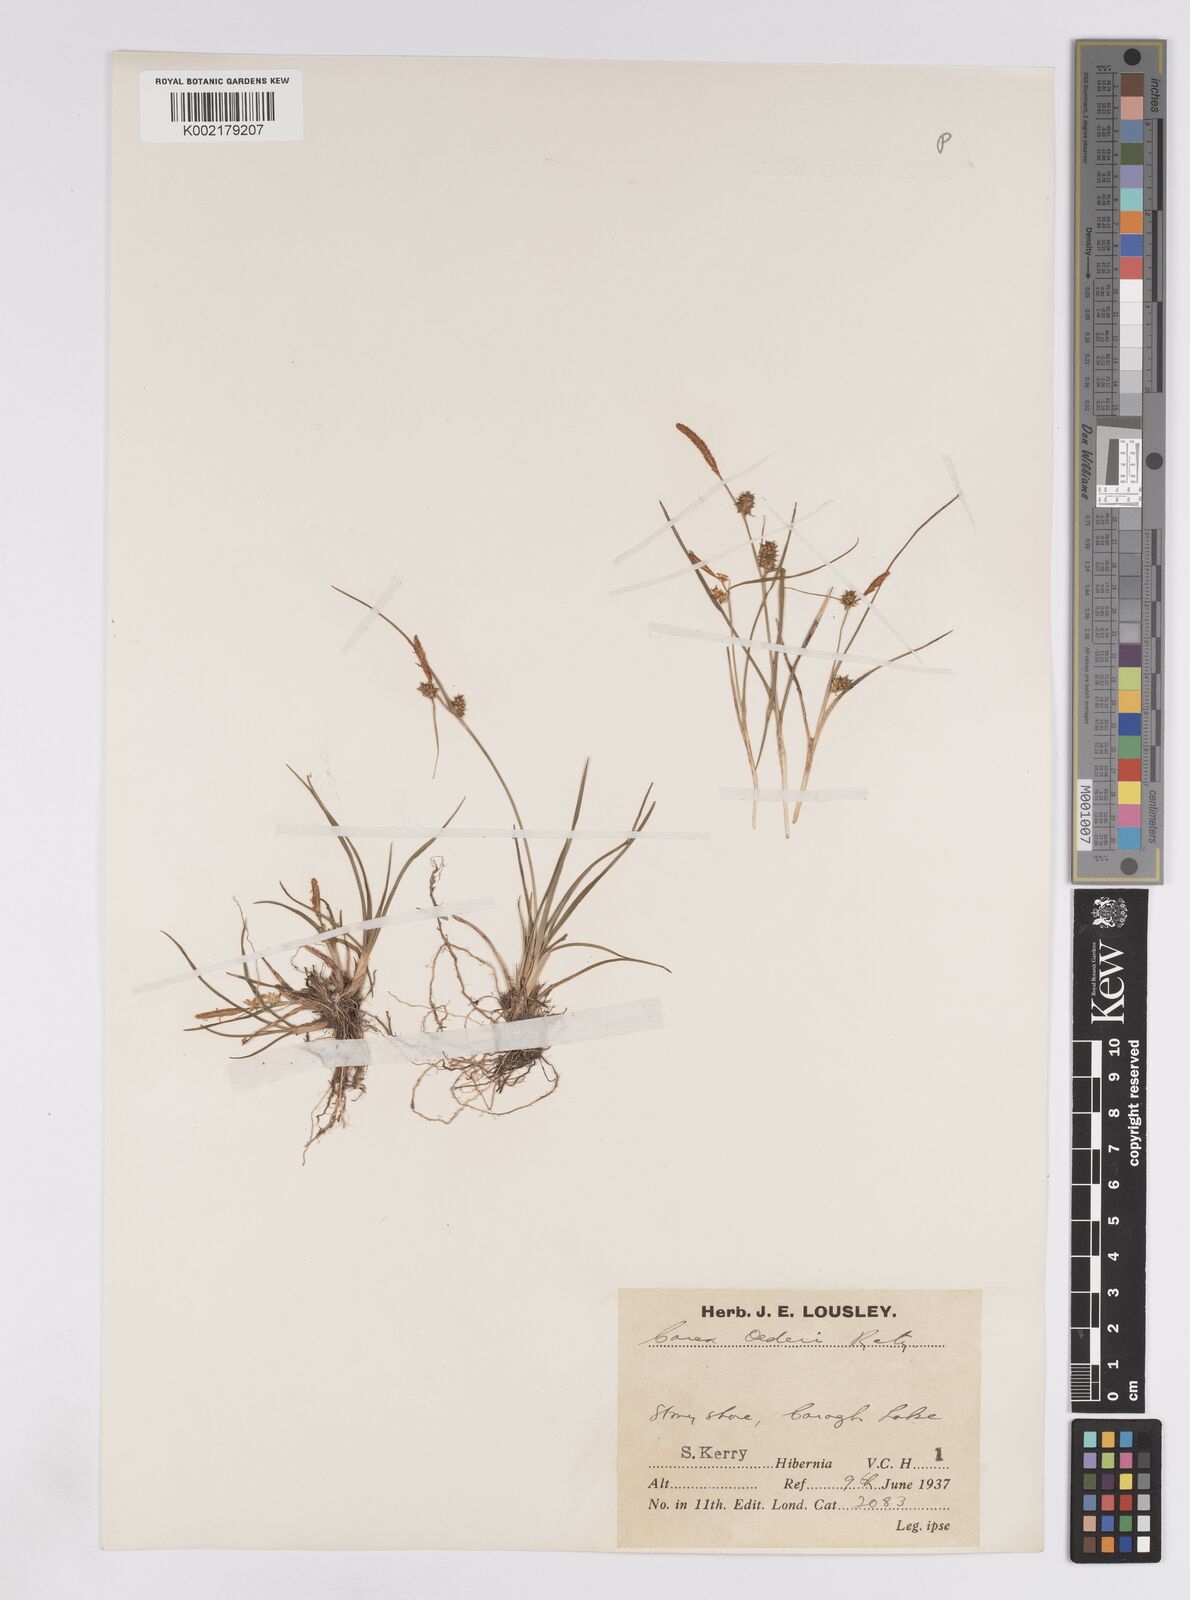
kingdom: Plantae
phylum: Tracheophyta
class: Liliopsida
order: Poales
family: Cyperaceae
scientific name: Cyperaceae
